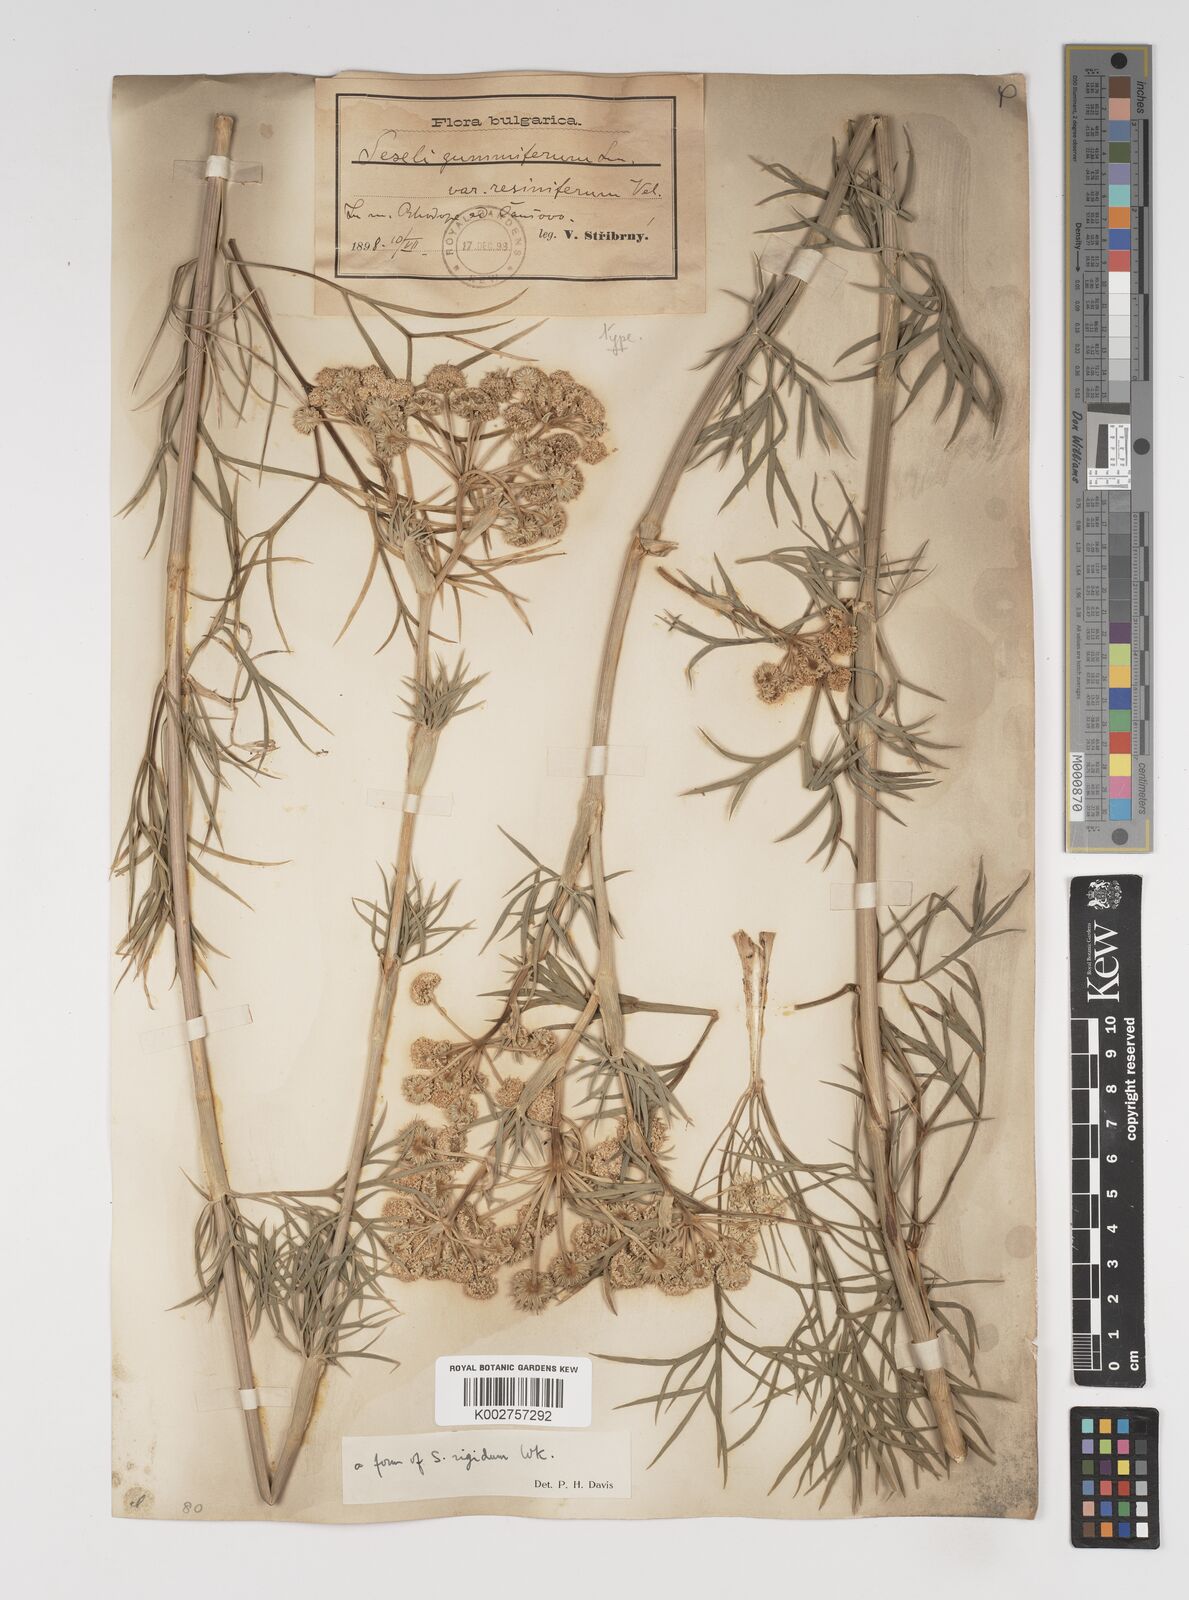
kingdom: Plantae
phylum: Tracheophyta
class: Magnoliopsida
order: Apiales
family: Apiaceae
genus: Seseli
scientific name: Seseli rigidum
